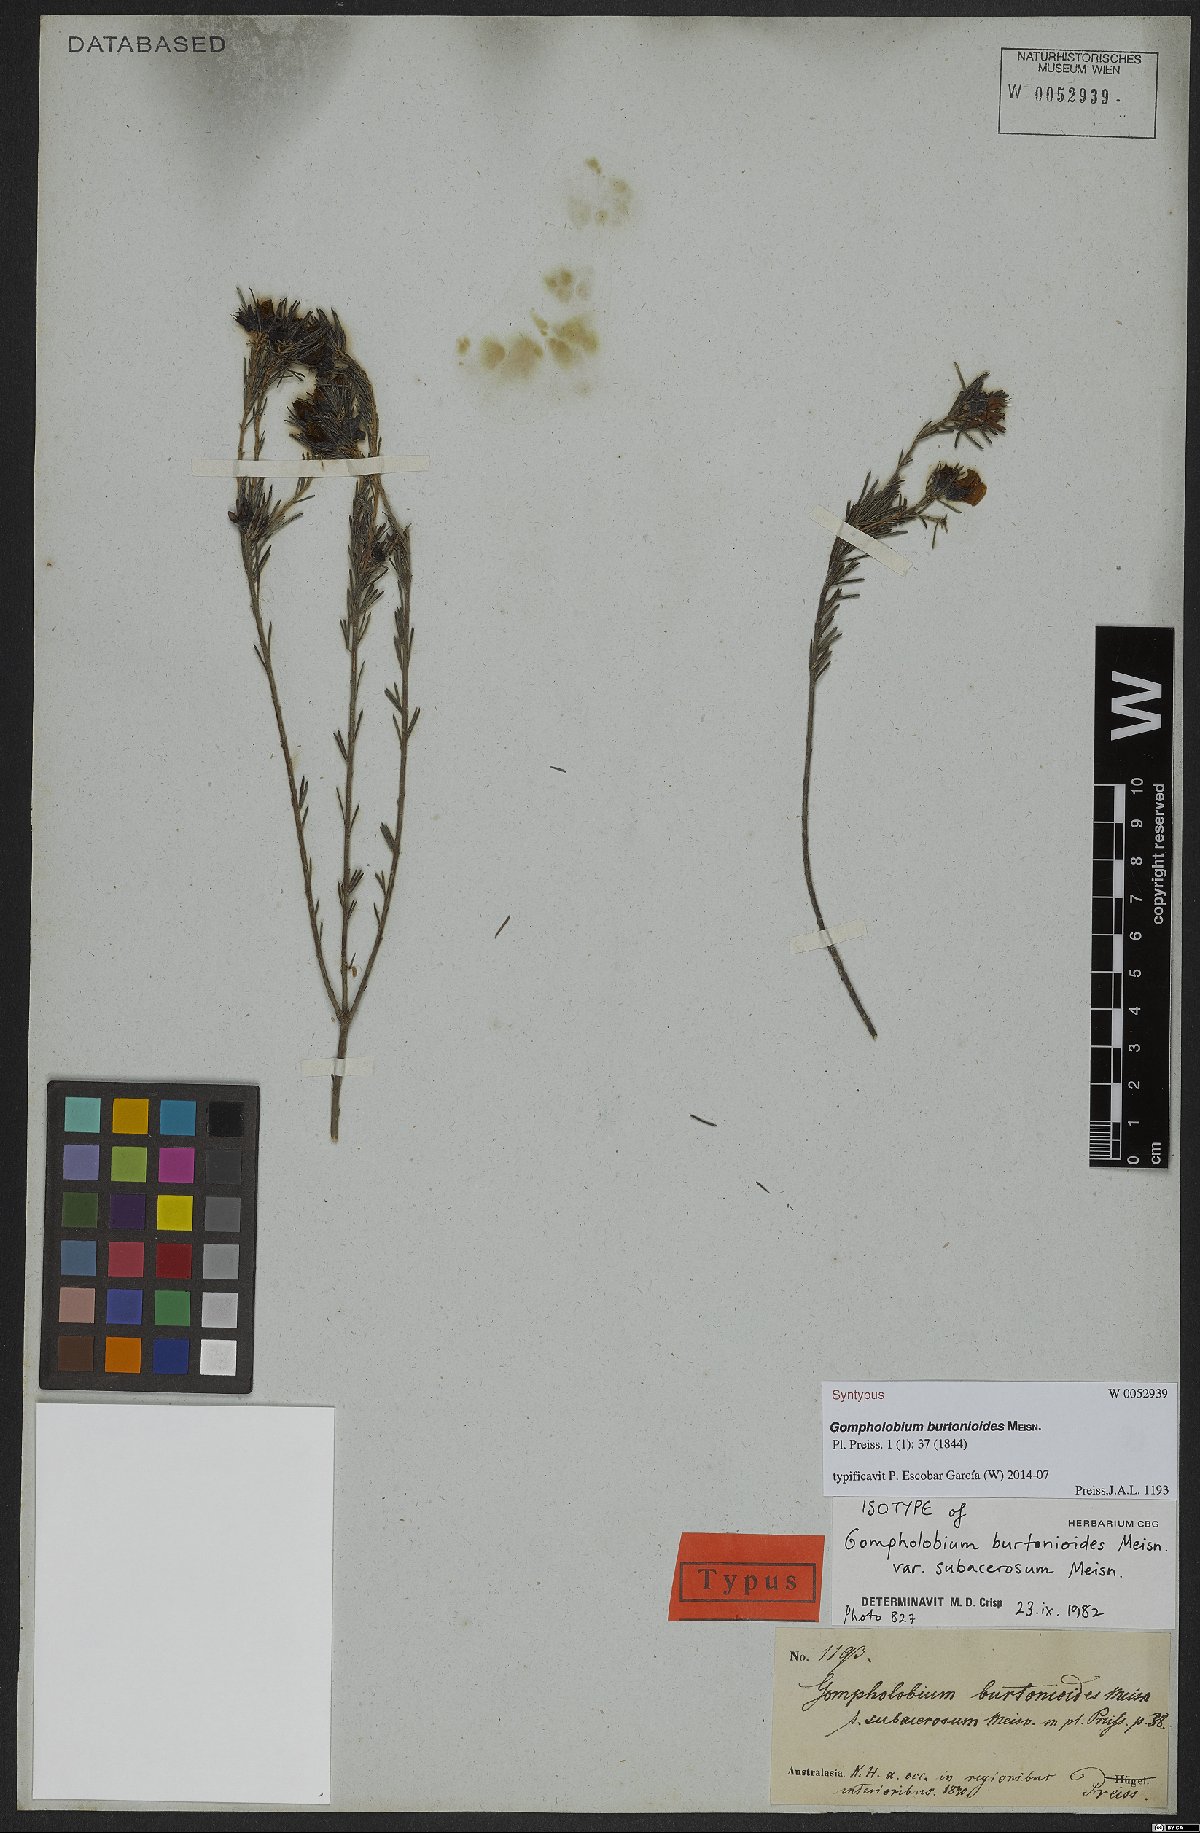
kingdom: Plantae
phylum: Tracheophyta
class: Magnoliopsida
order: Fabales
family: Fabaceae
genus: Gompholobium
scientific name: Gompholobium burtonioides
